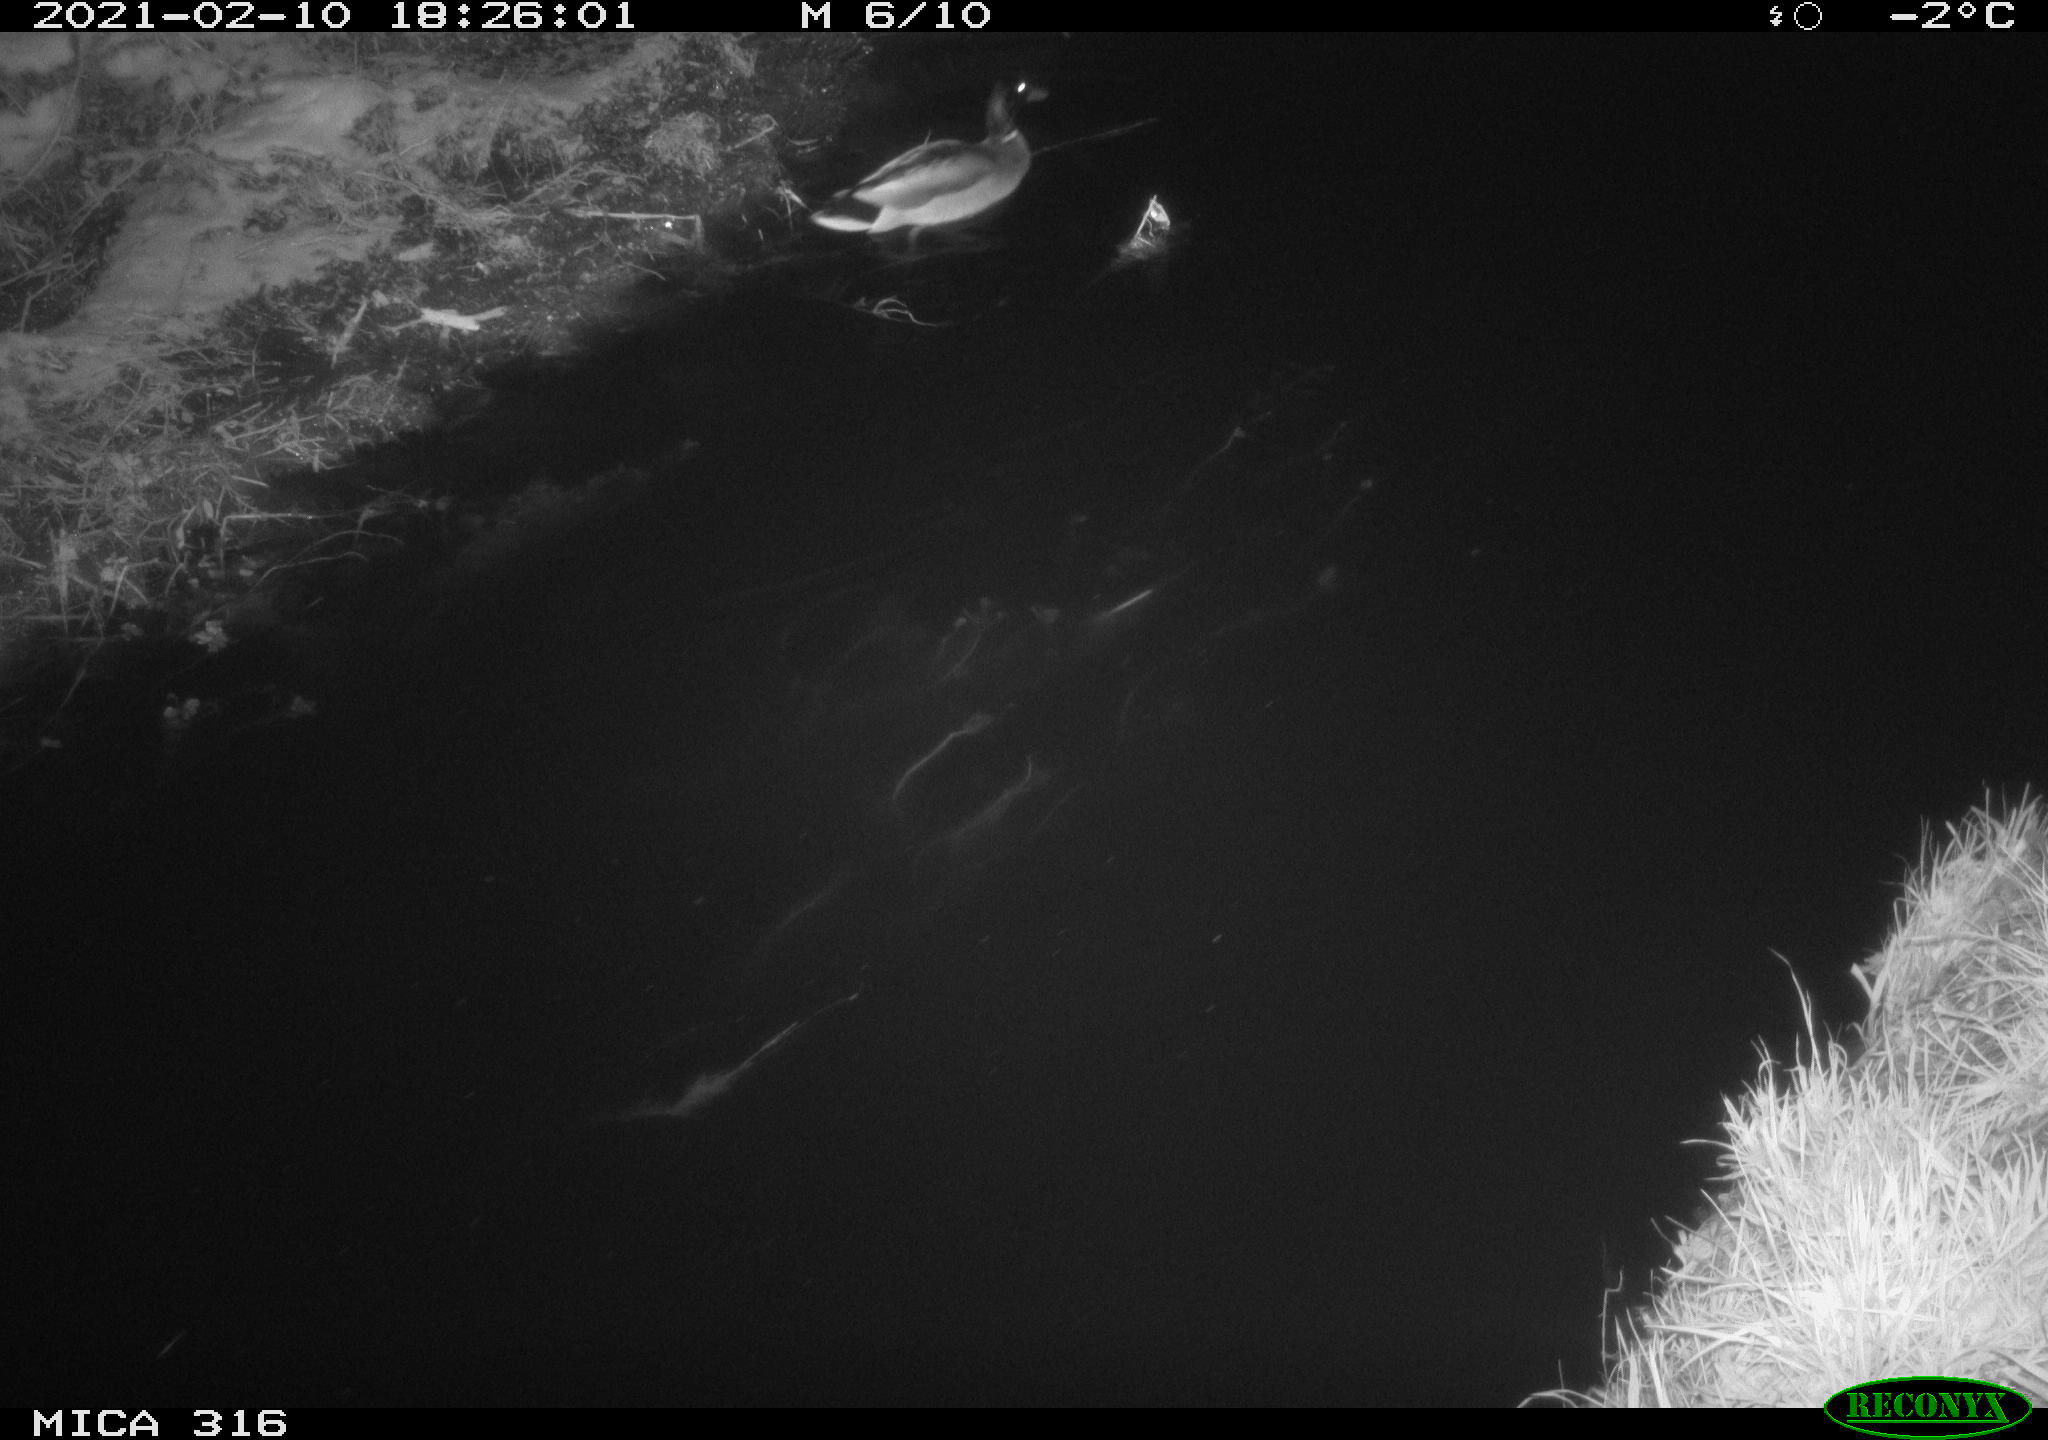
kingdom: Animalia
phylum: Chordata
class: Aves
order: Anseriformes
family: Anatidae
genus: Anas
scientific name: Anas platyrhynchos
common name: Mallard
